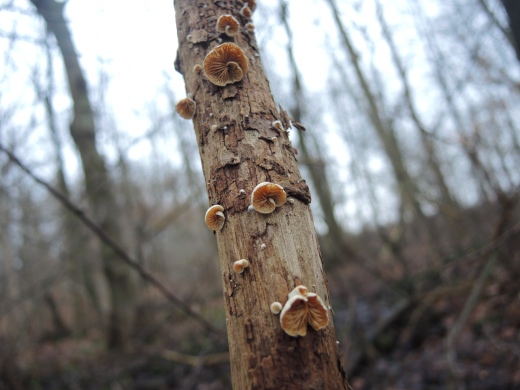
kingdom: Fungi
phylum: Basidiomycota
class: Agaricomycetes
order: Agaricales
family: Crepidotaceae
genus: Crepidotus
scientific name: Crepidotus cesatii
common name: almindelig muslingesvamp
